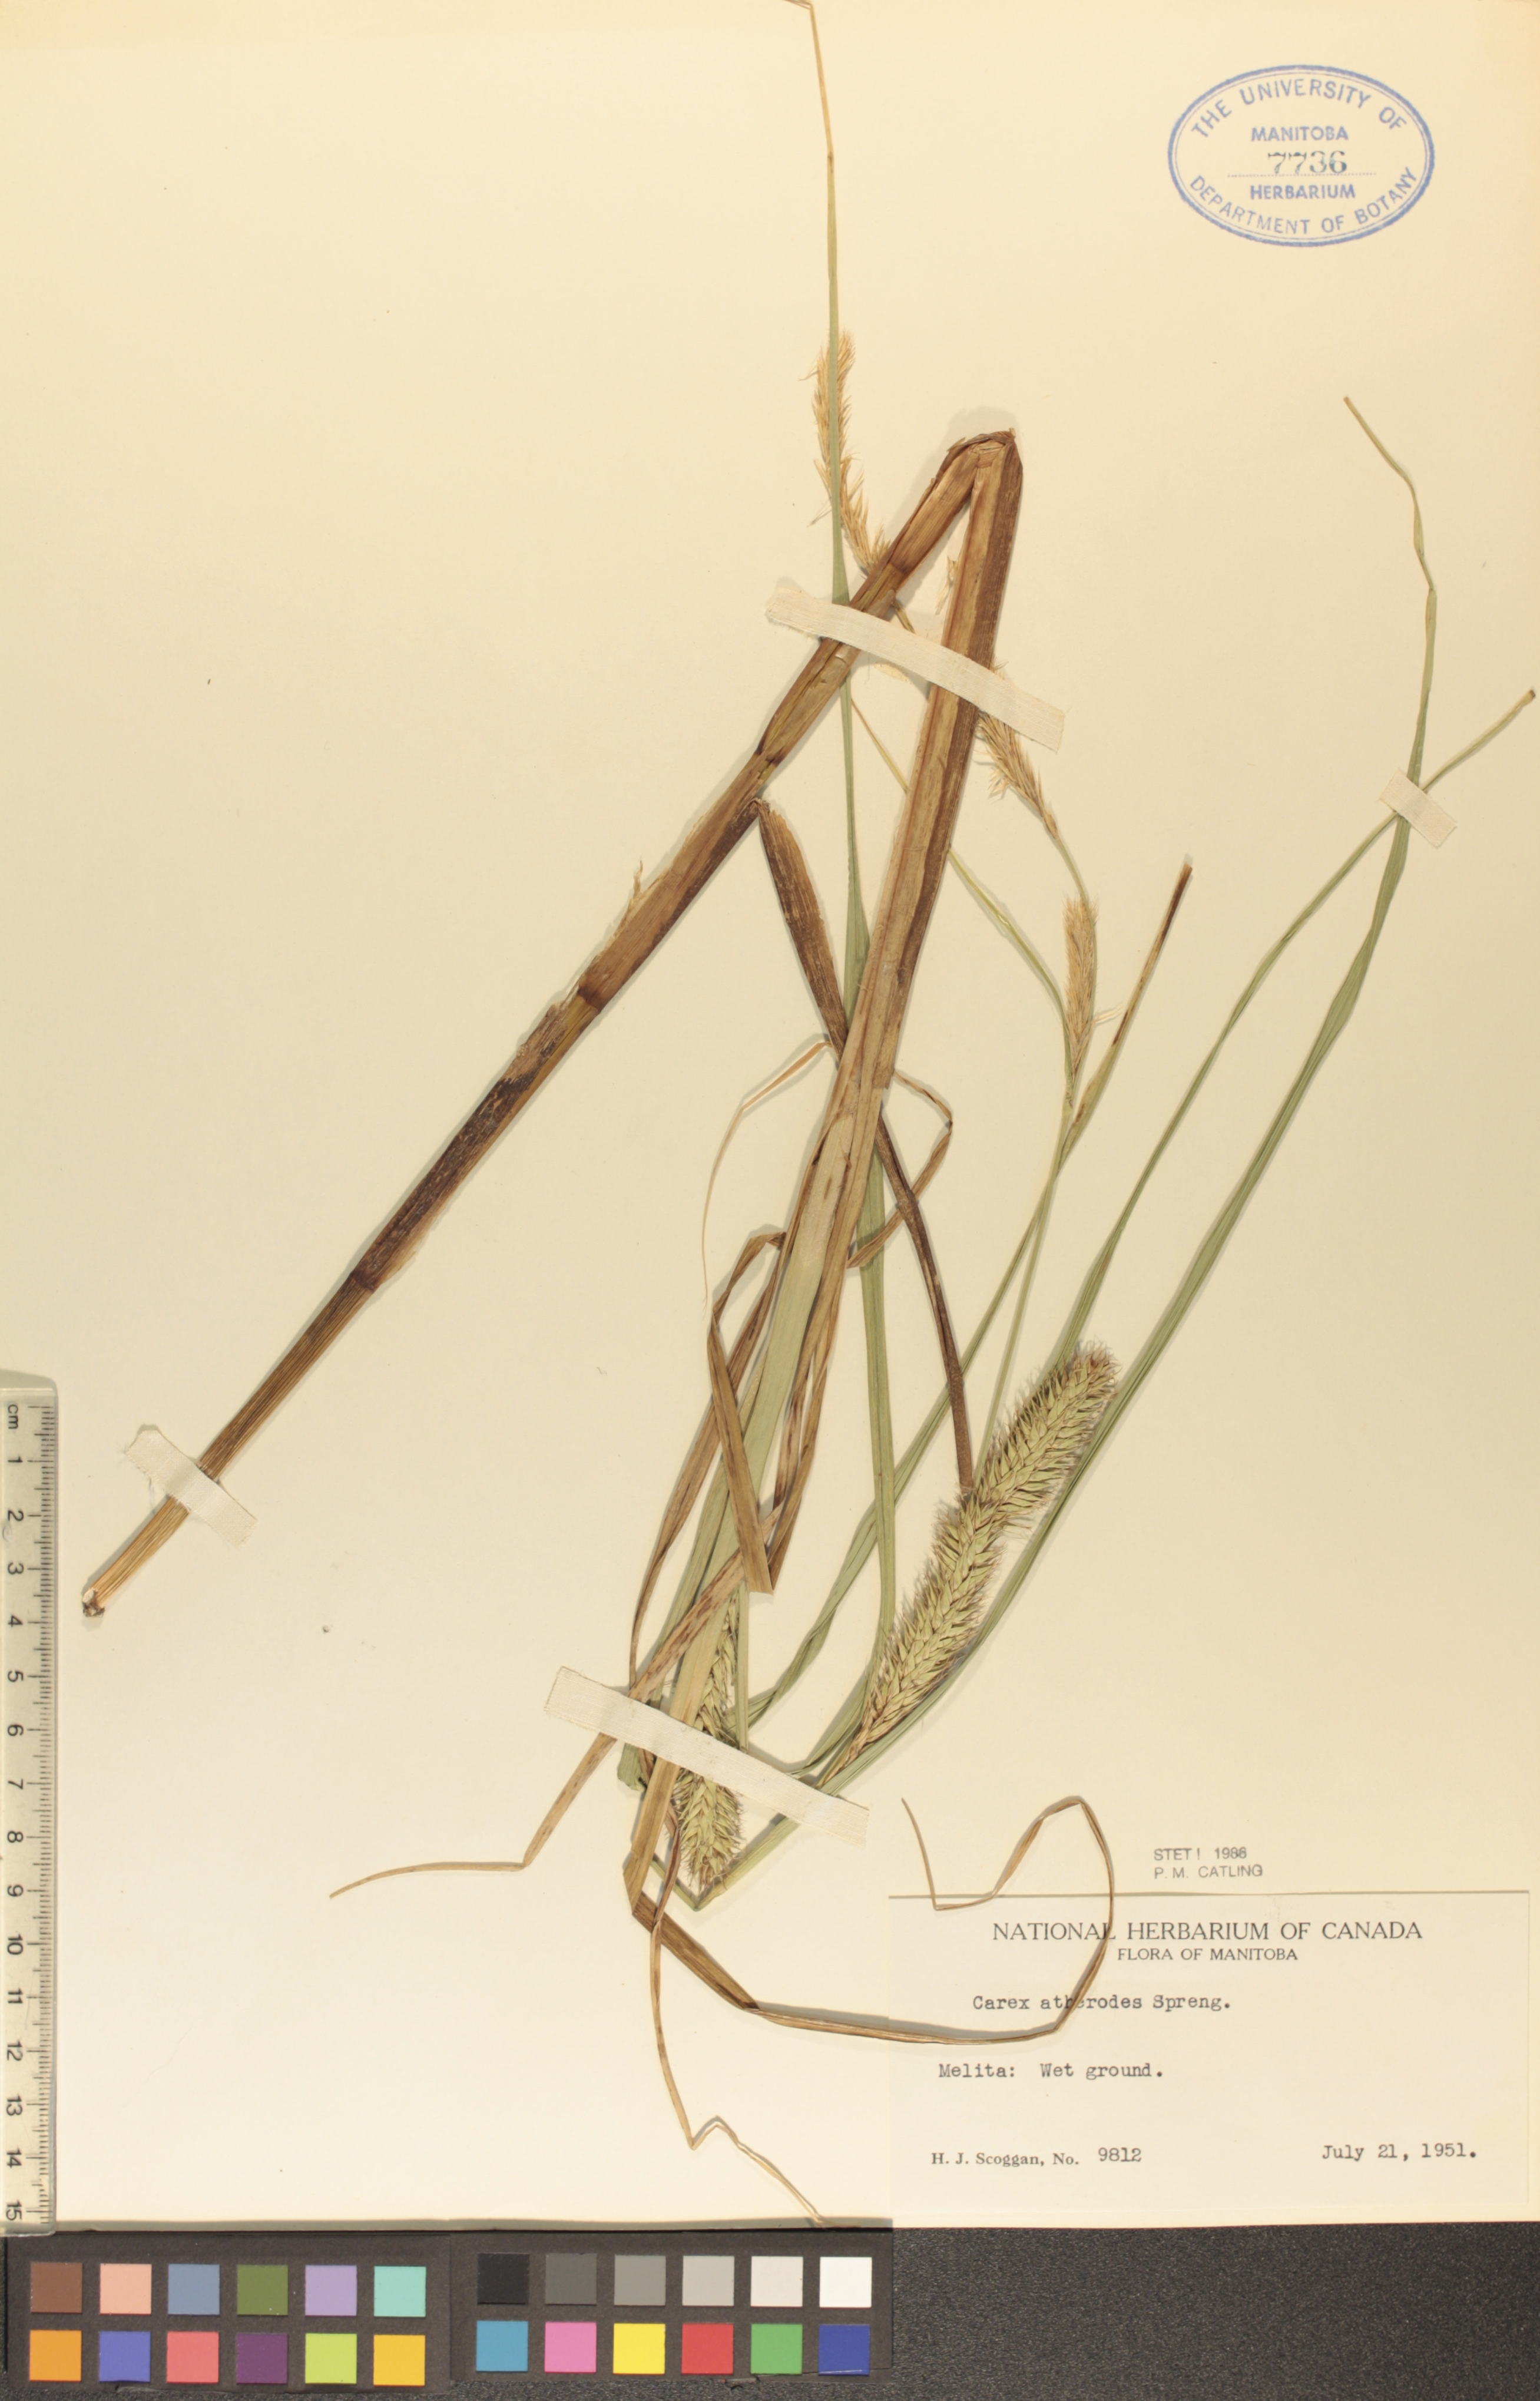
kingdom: Plantae
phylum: Tracheophyta
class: Liliopsida
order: Poales
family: Cyperaceae
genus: Carex
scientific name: Carex atherodes
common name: Wheat sedge
